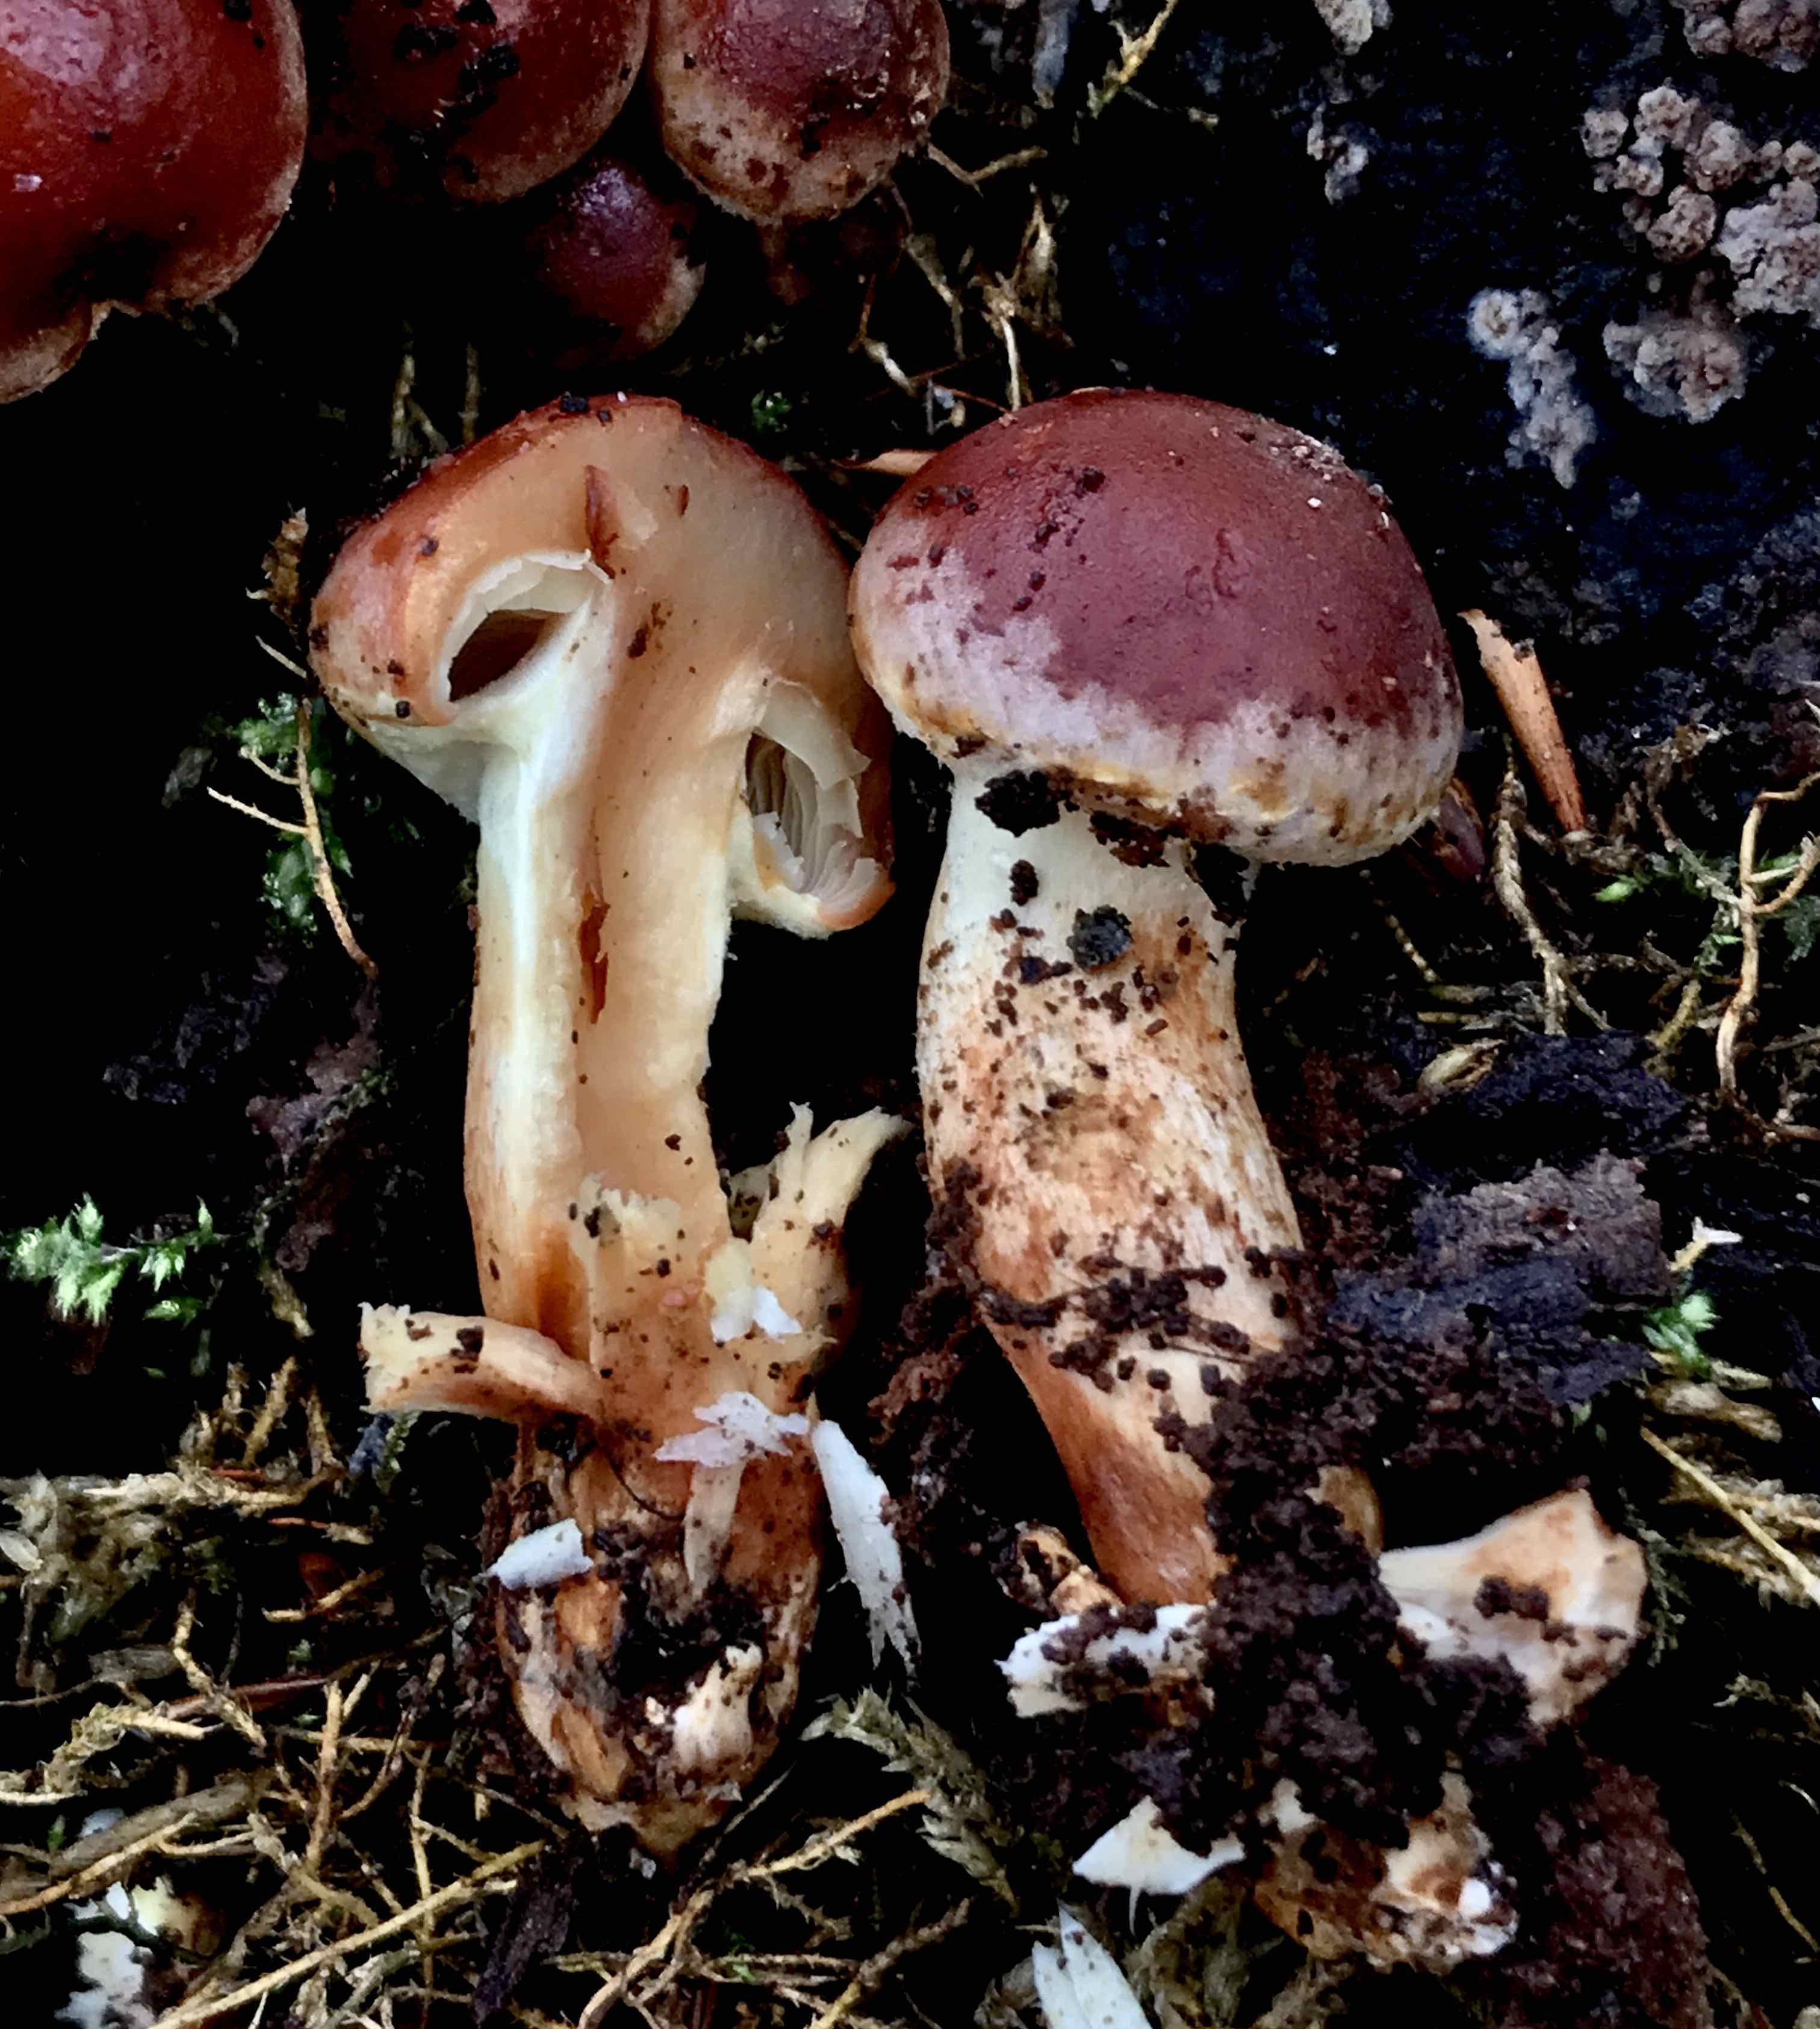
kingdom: Fungi
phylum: Basidiomycota
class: Agaricomycetes
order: Agaricales
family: Strophariaceae
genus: Hypholoma
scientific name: Hypholoma lateritium
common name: teglrød svovlhat
